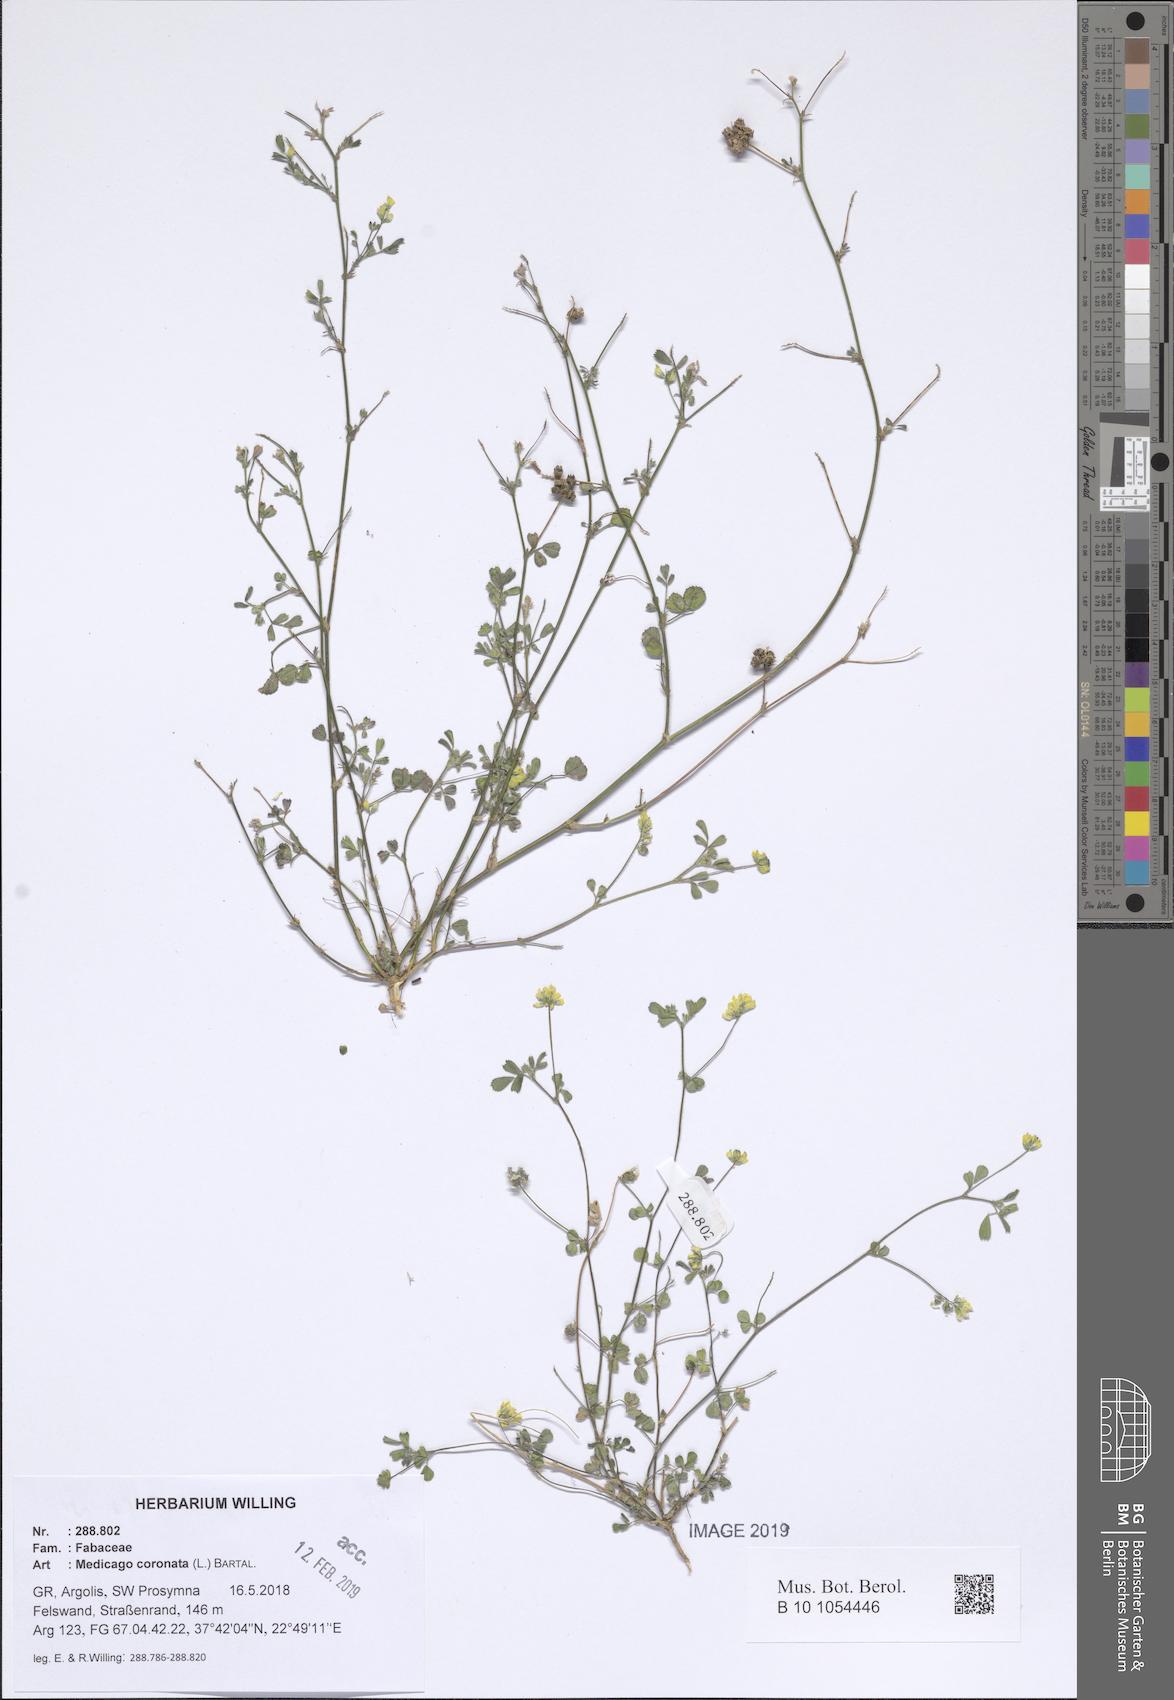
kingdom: Plantae
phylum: Tracheophyta
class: Magnoliopsida
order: Fabales
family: Fabaceae
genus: Medicago
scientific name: Medicago coronata
